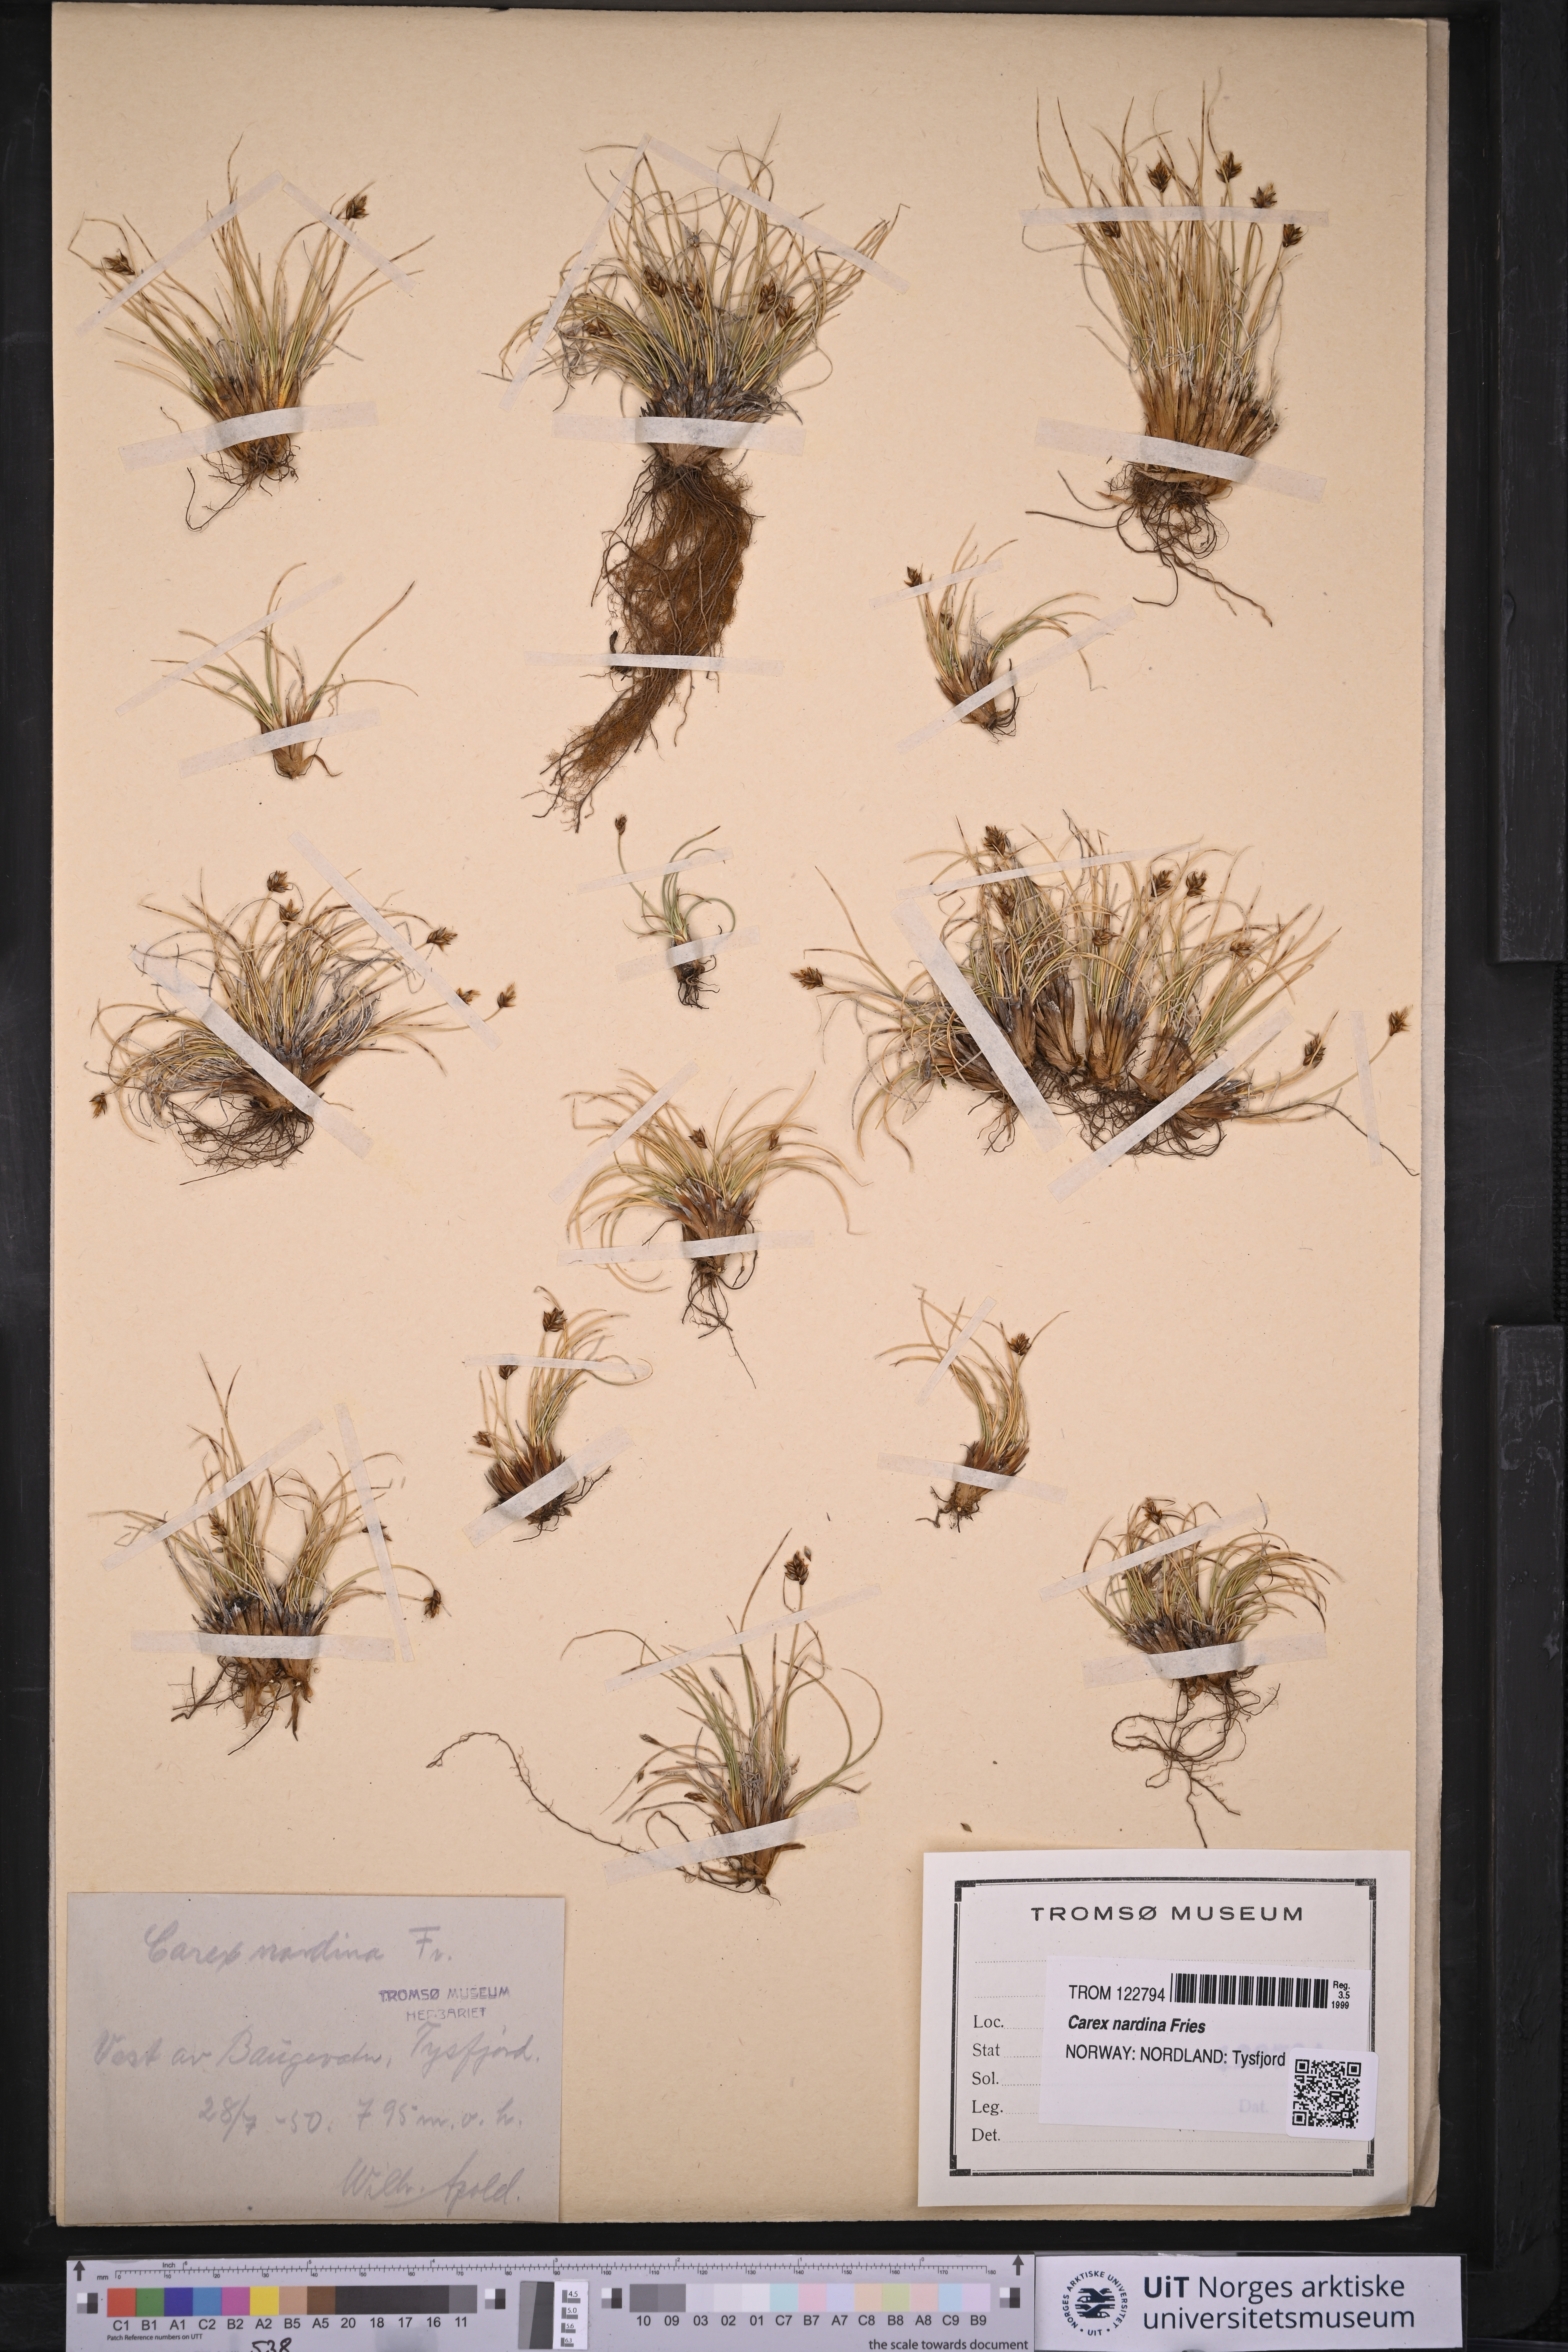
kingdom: Plantae
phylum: Tracheophyta
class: Liliopsida
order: Poales
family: Cyperaceae
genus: Carex
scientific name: Carex nardina
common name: Nard sedge
